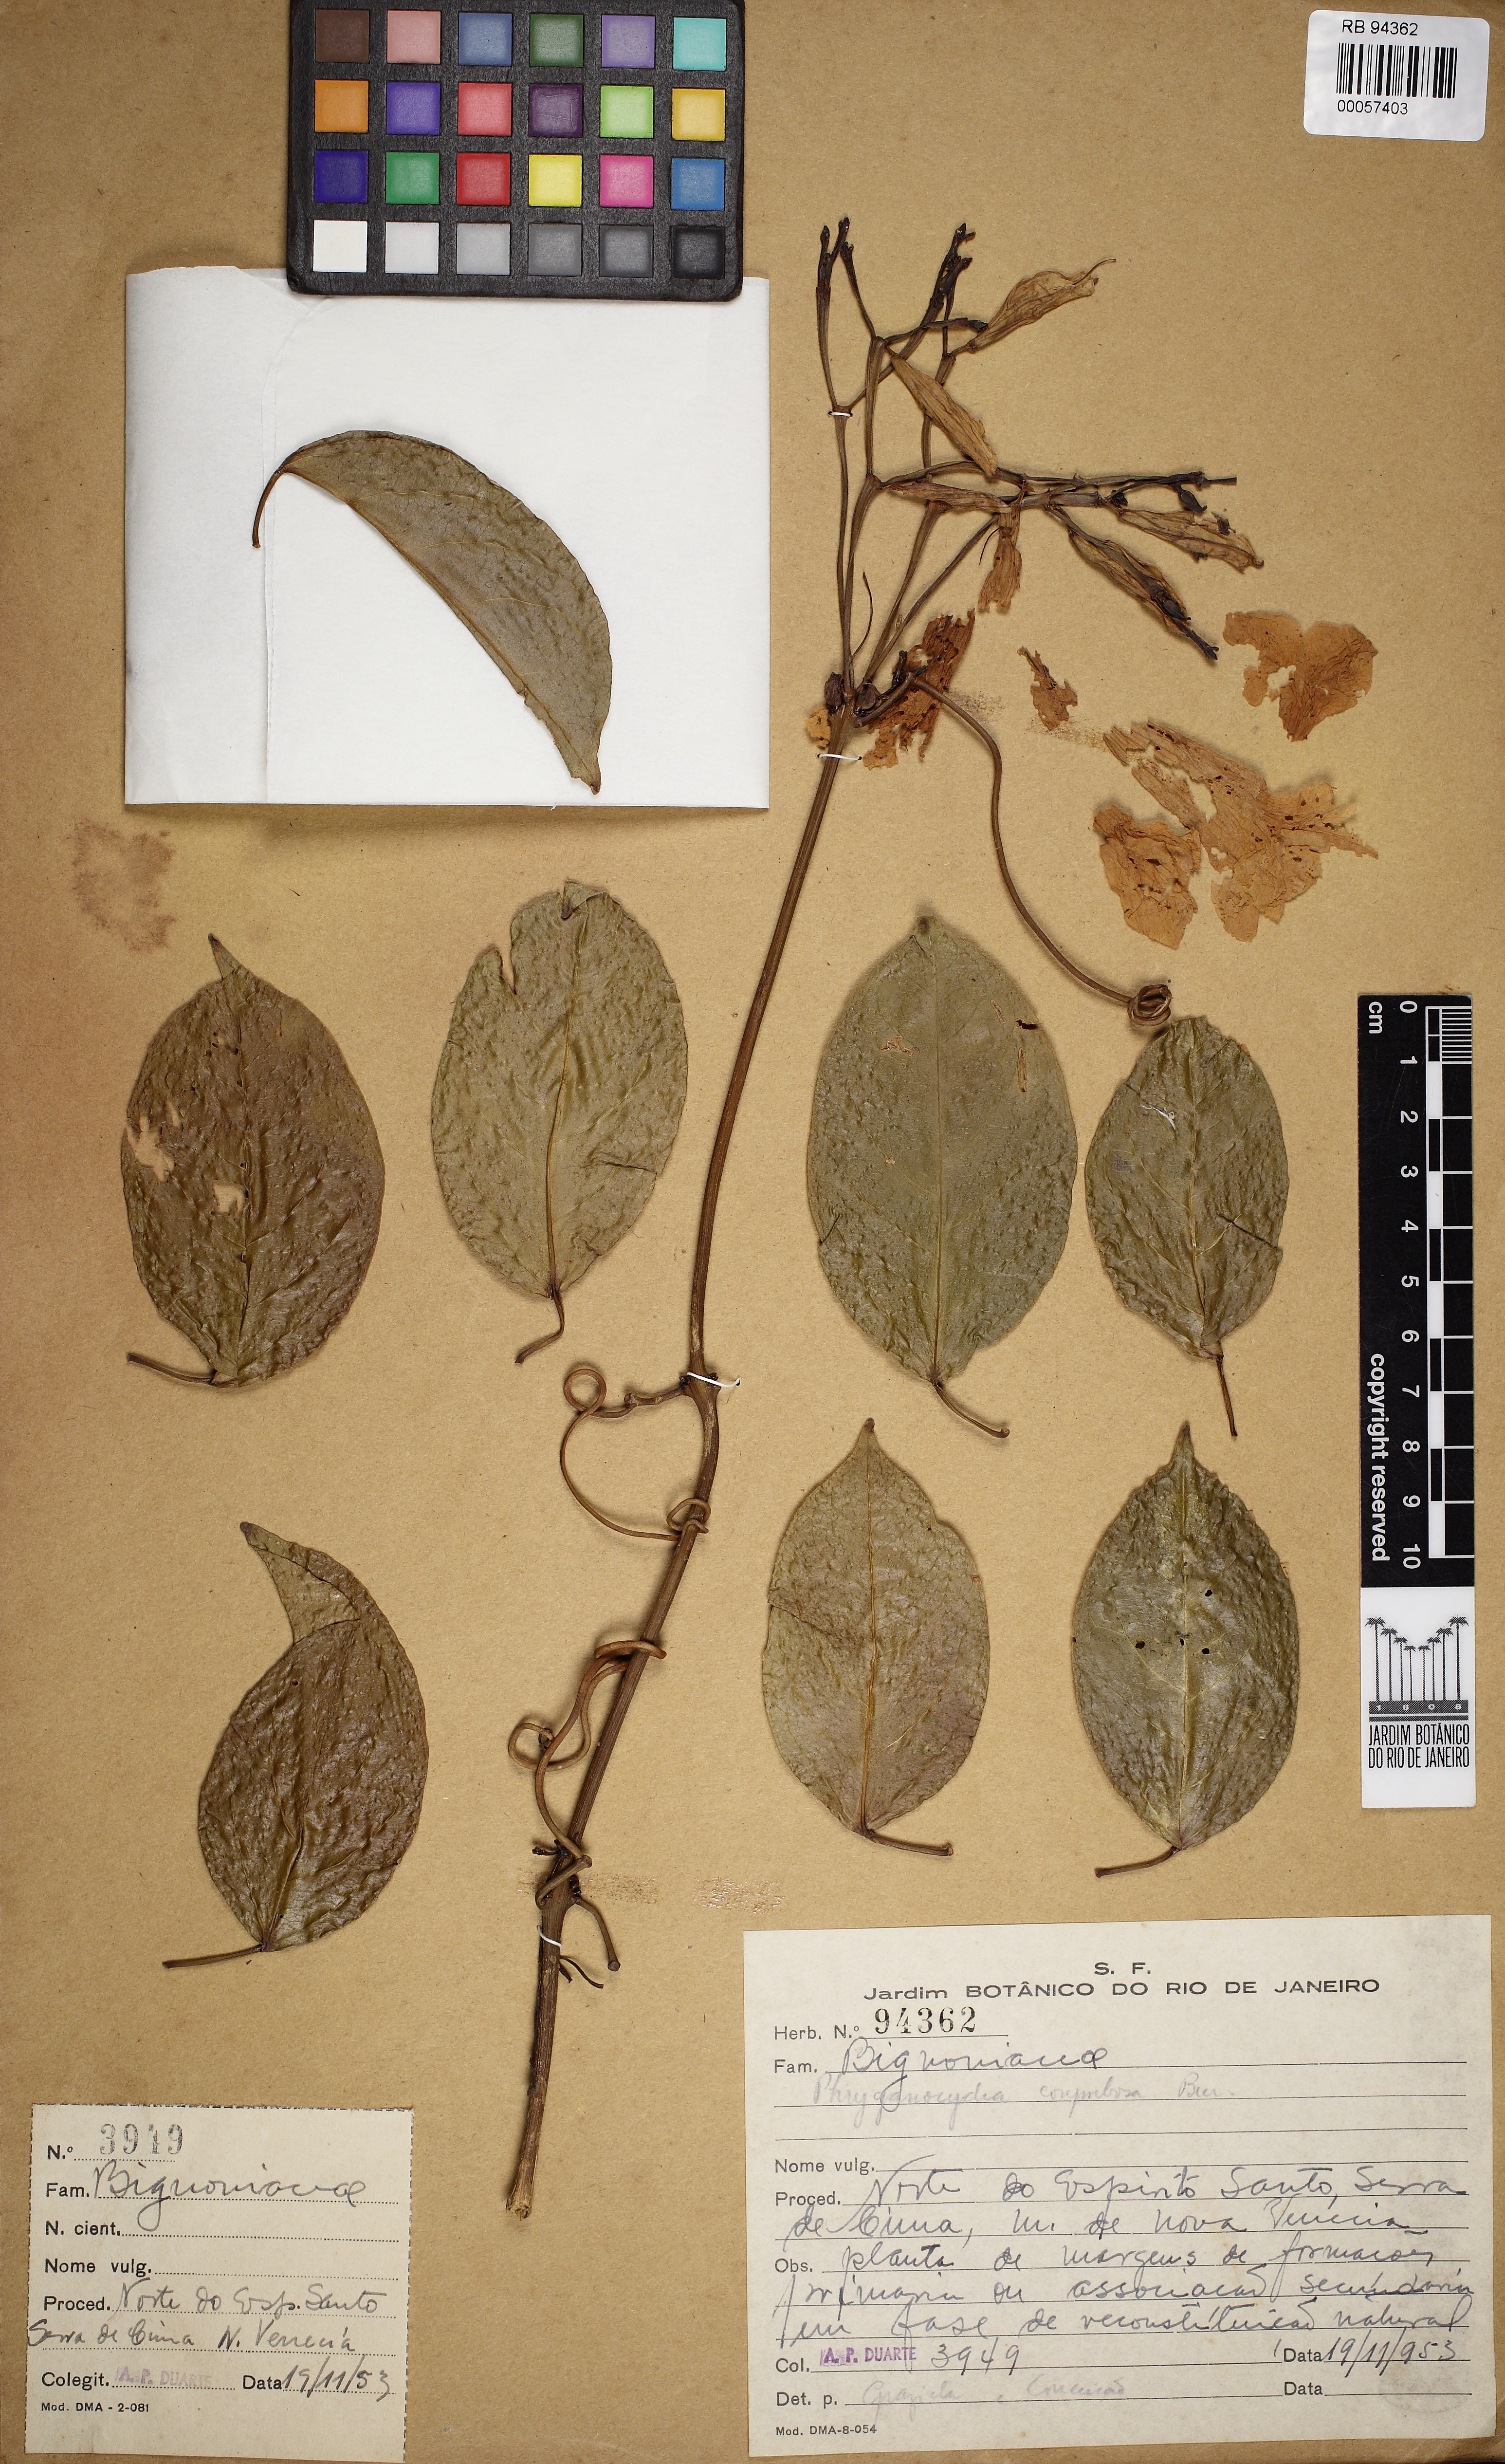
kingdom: Plantae
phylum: Tracheophyta
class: Magnoliopsida
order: Lamiales
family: Bignoniaceae
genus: Bignonia
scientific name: Bignonia corymbosa
